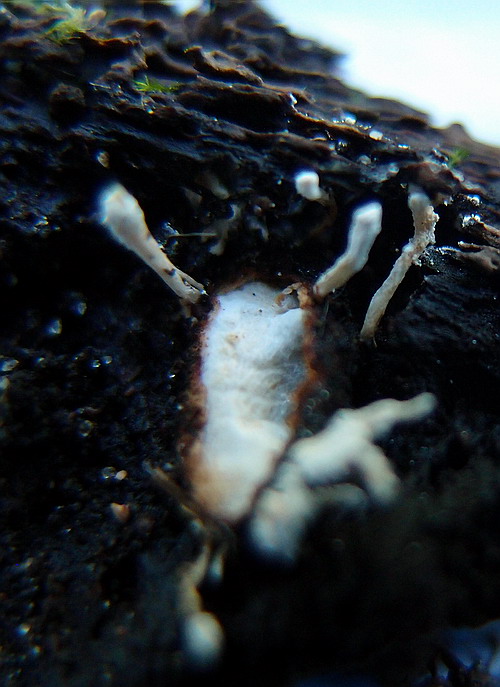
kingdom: Fungi
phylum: Ascomycota
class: Sordariomycetes
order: Hypocreales
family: Cordycipitaceae
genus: Cordyceps
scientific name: Cordyceps farinosa
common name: melet snyltekølle
